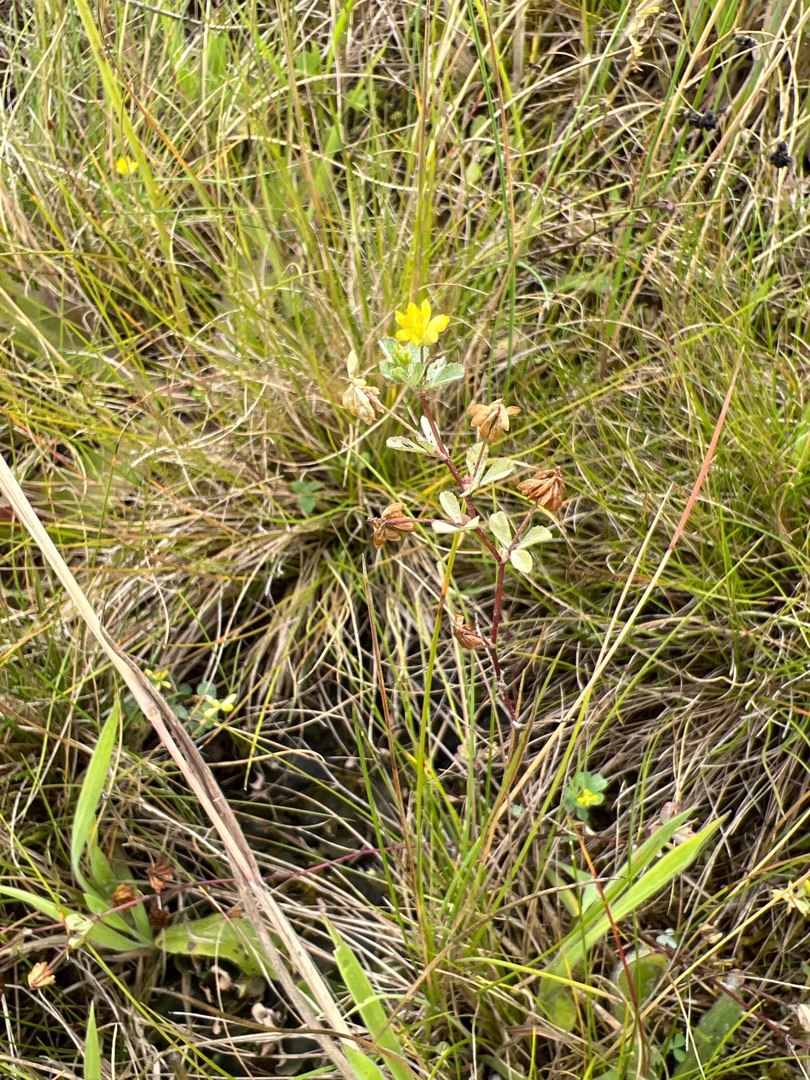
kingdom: Plantae
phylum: Tracheophyta
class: Magnoliopsida
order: Fabales
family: Fabaceae
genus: Trifolium
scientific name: Trifolium dubium
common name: Fin kløver
